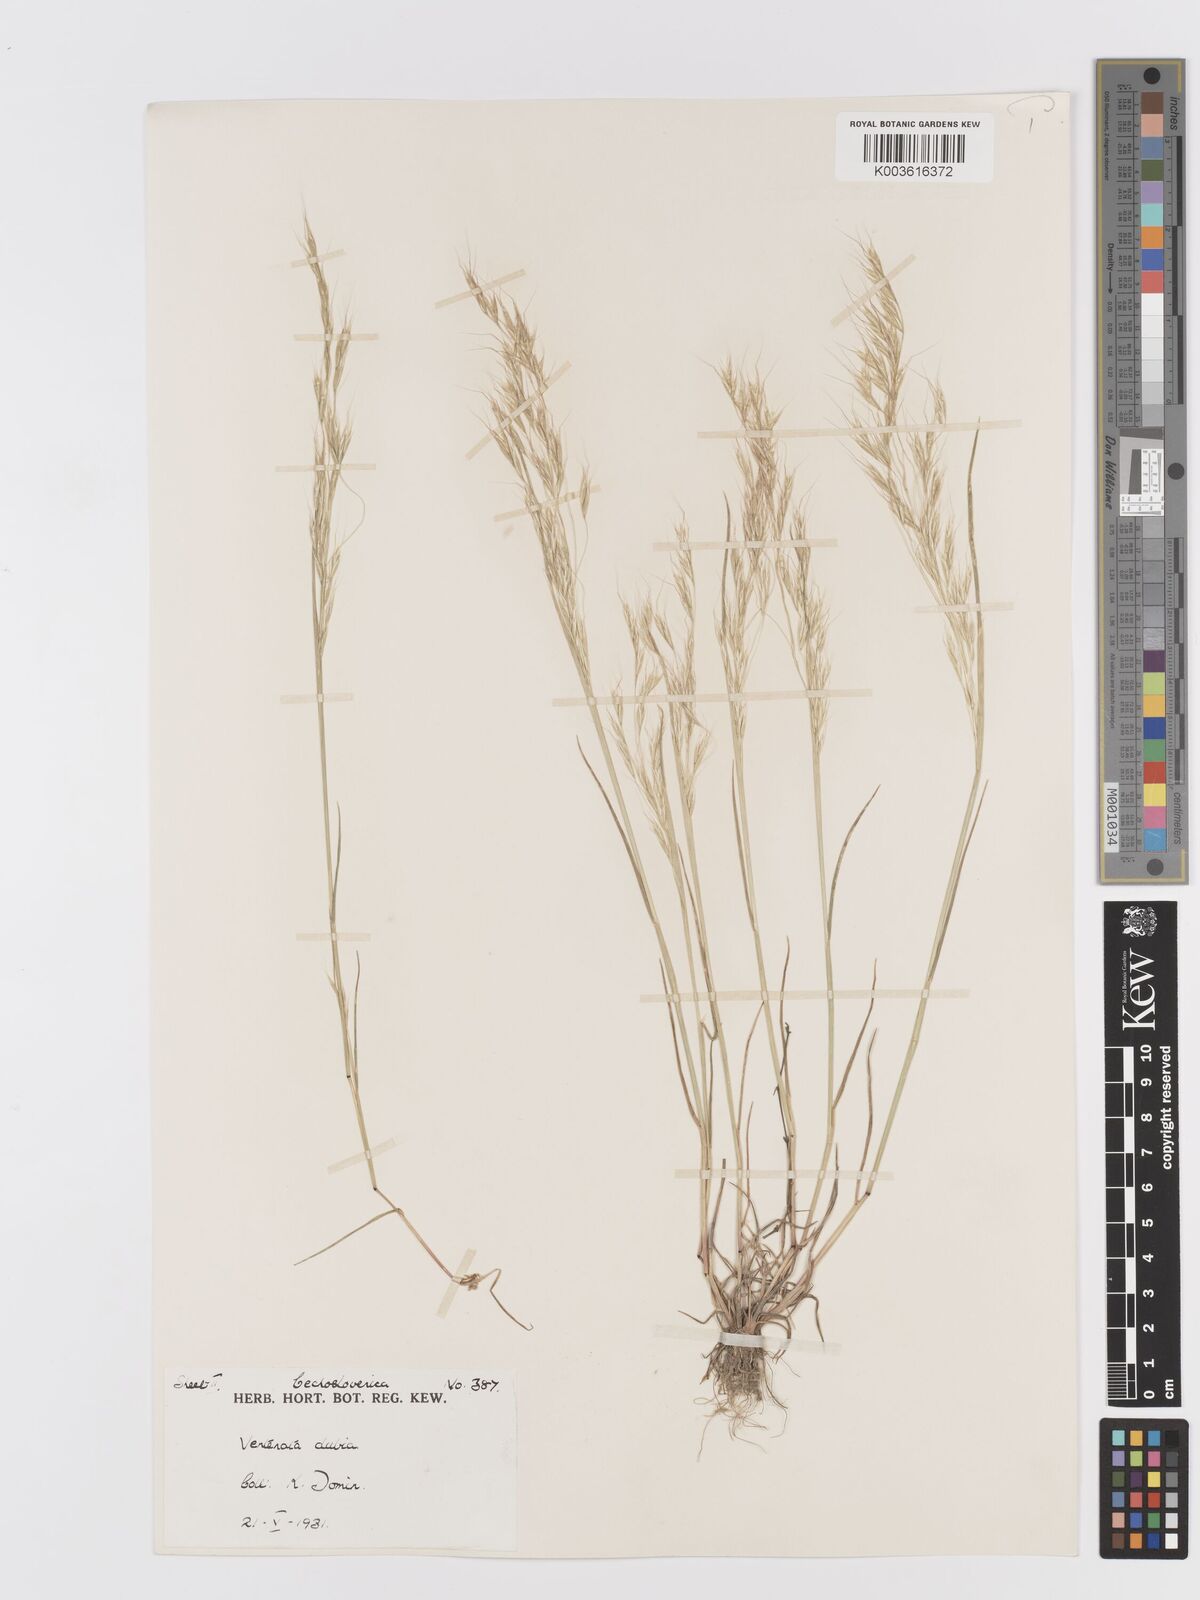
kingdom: Plantae
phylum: Tracheophyta
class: Liliopsida
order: Poales
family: Poaceae
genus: Ventenata
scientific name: Ventenata dubia
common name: North africa grass
